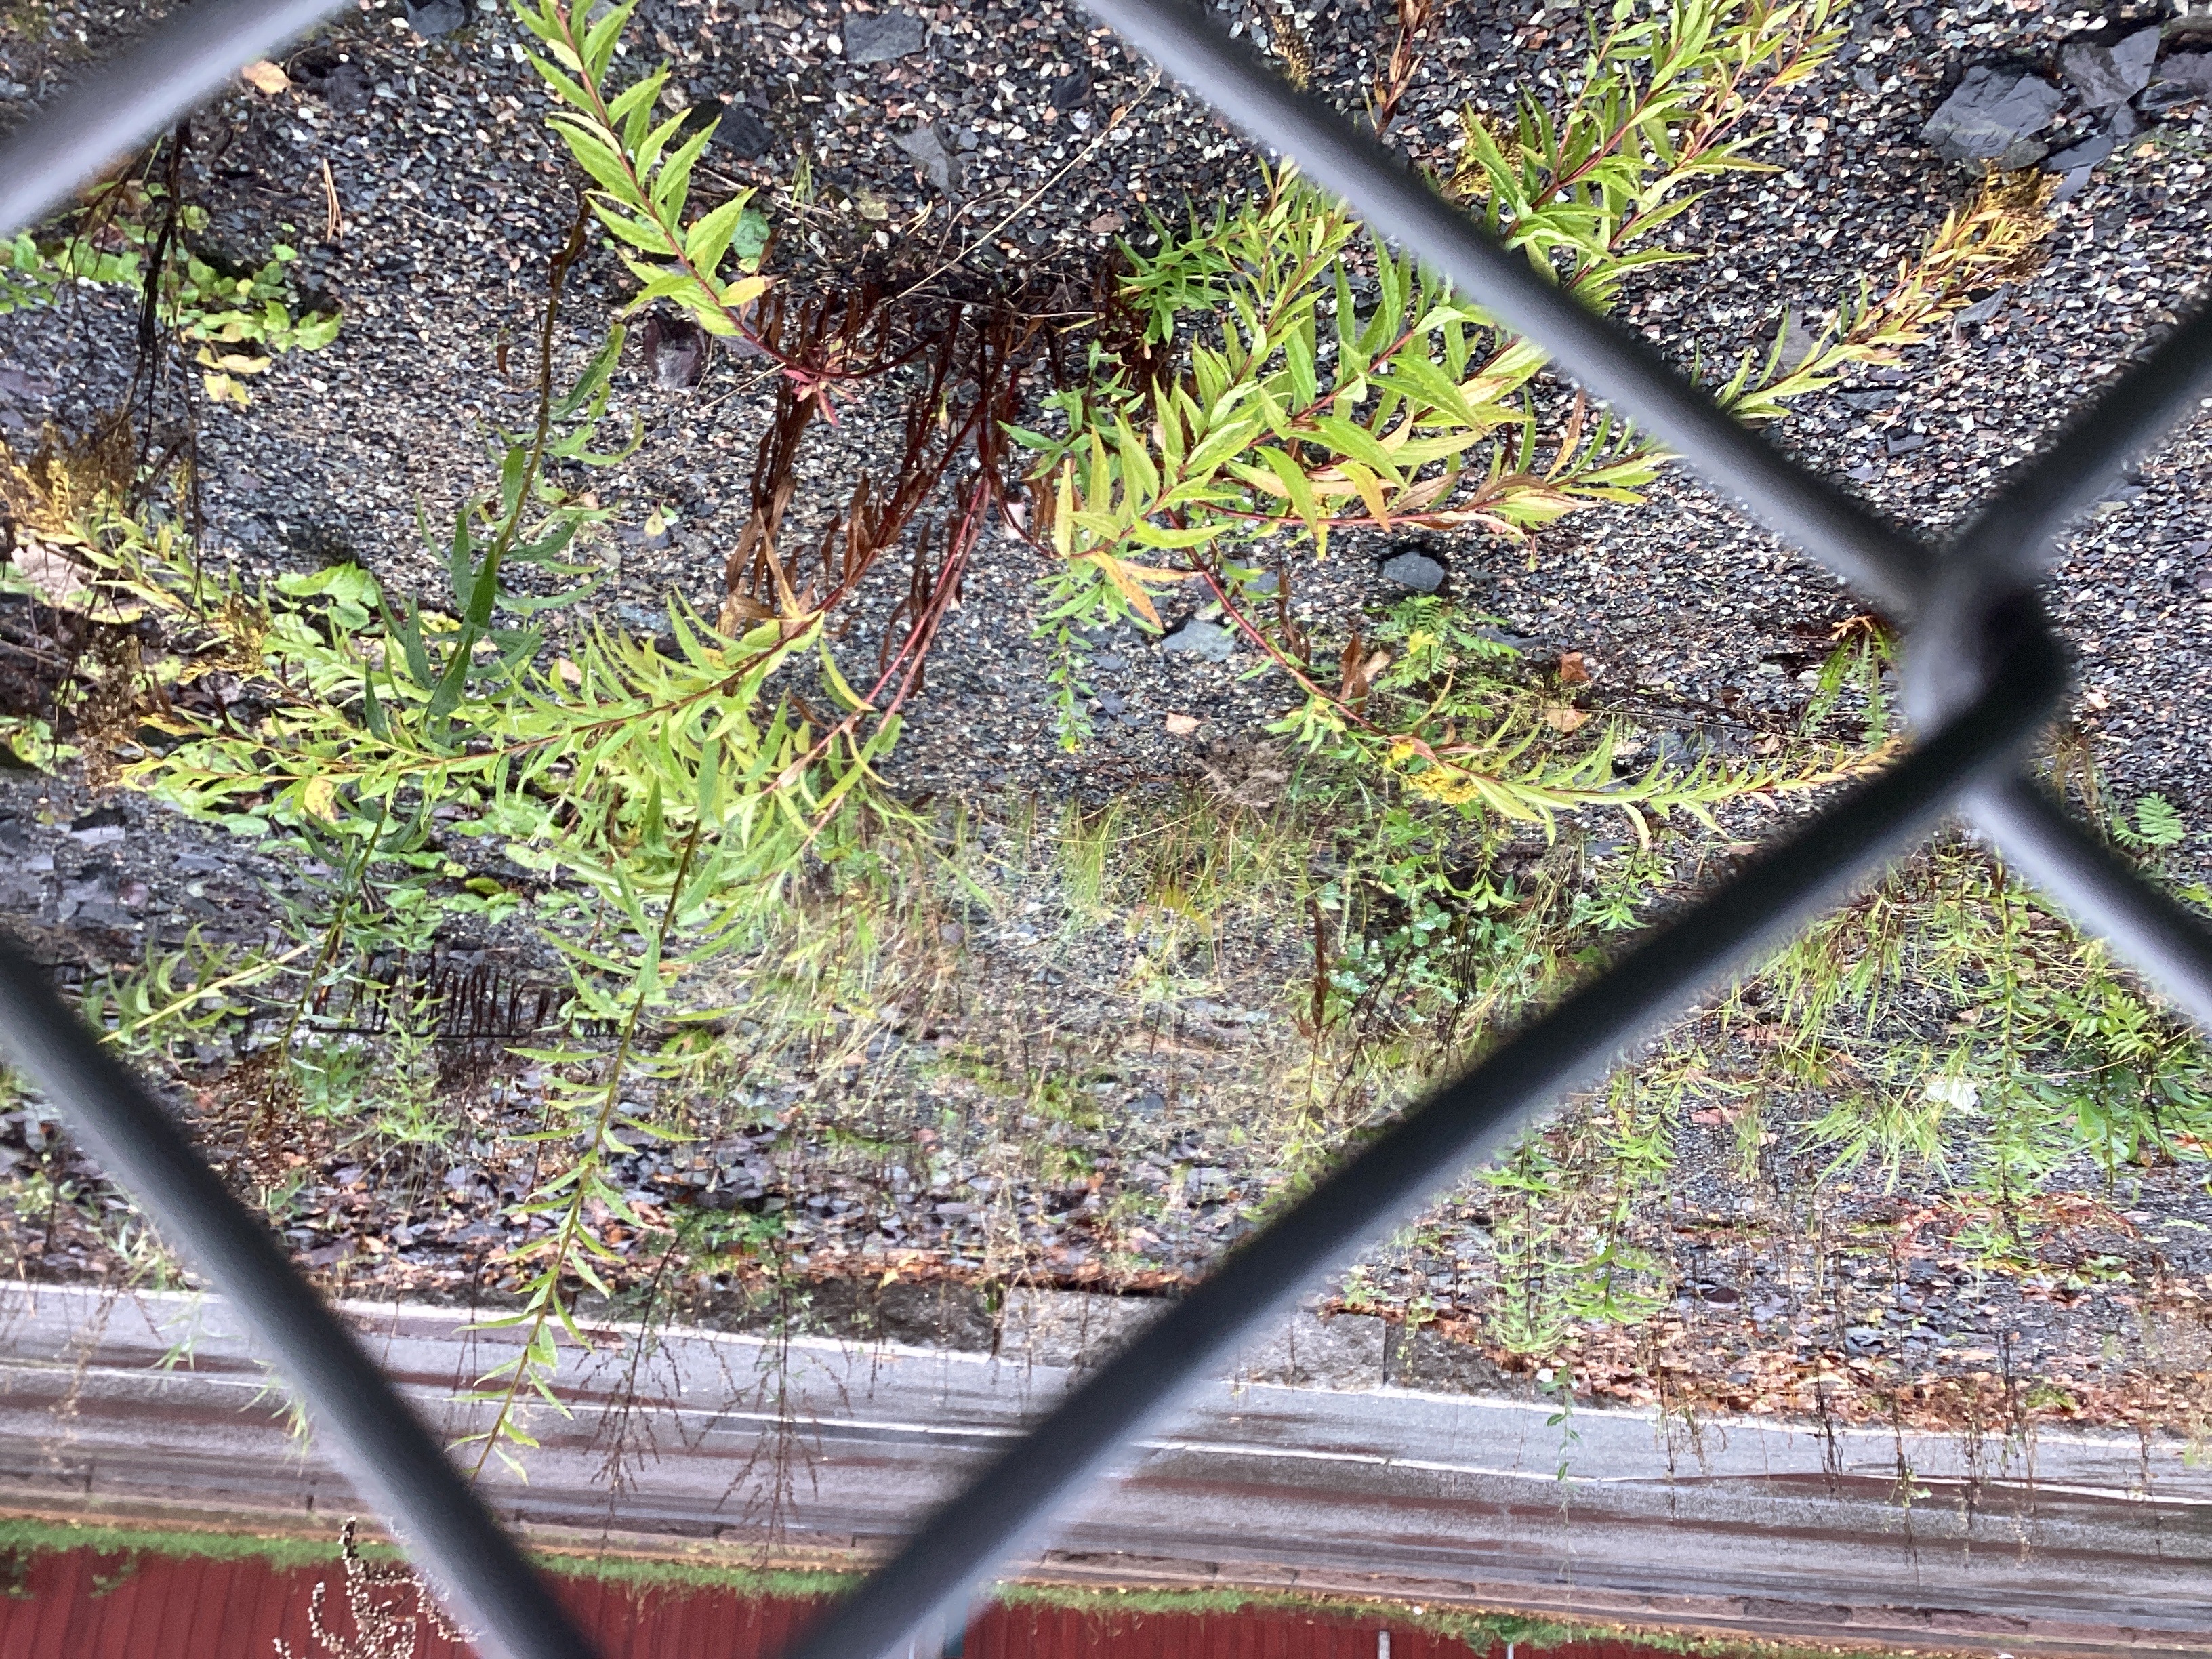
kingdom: Plantae
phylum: Tracheophyta
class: Magnoliopsida
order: Asterales
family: Asteraceae
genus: Solidago
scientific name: Solidago canadensis
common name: kanadagullris
